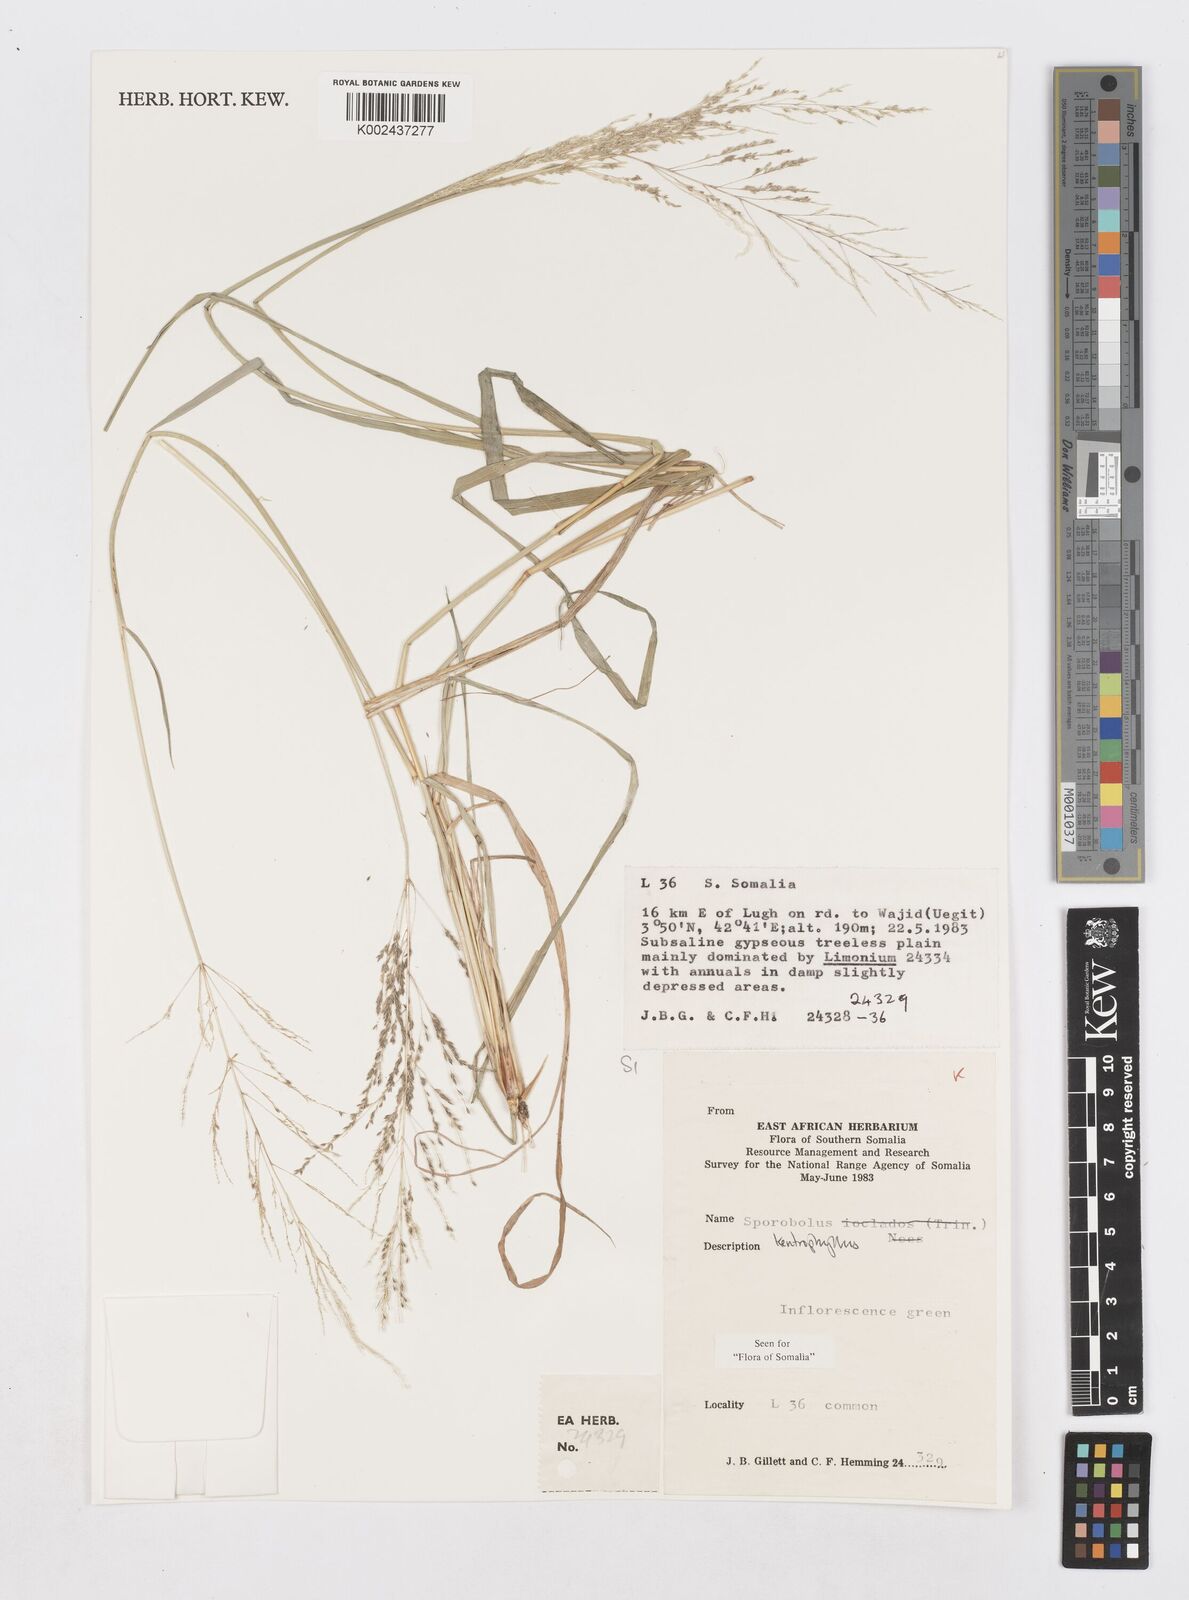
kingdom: Plantae
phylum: Tracheophyta
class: Liliopsida
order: Poales
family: Poaceae
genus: Sporobolus
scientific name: Sporobolus ioclados
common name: Pan dropseed
